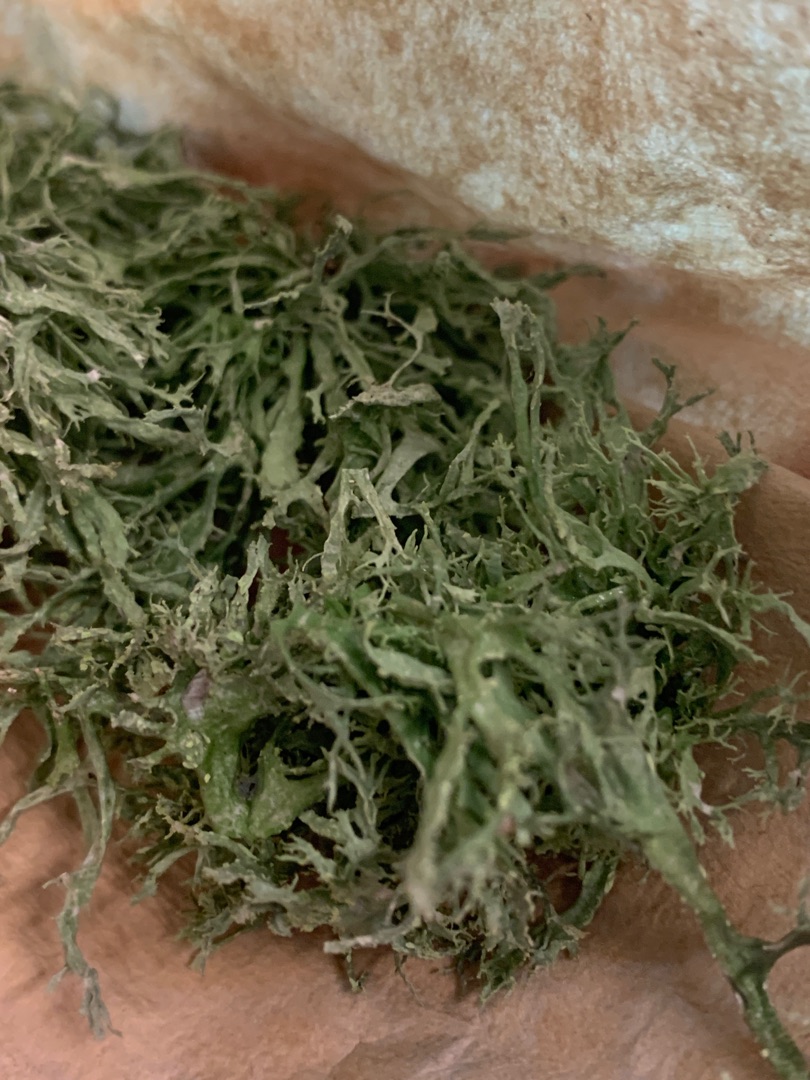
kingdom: Fungi
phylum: Ascomycota
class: Lecanoromycetes
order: Lecanorales
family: Ramalinaceae
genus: Ramalina
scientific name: Ramalina farinacea
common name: Melet grenlav
